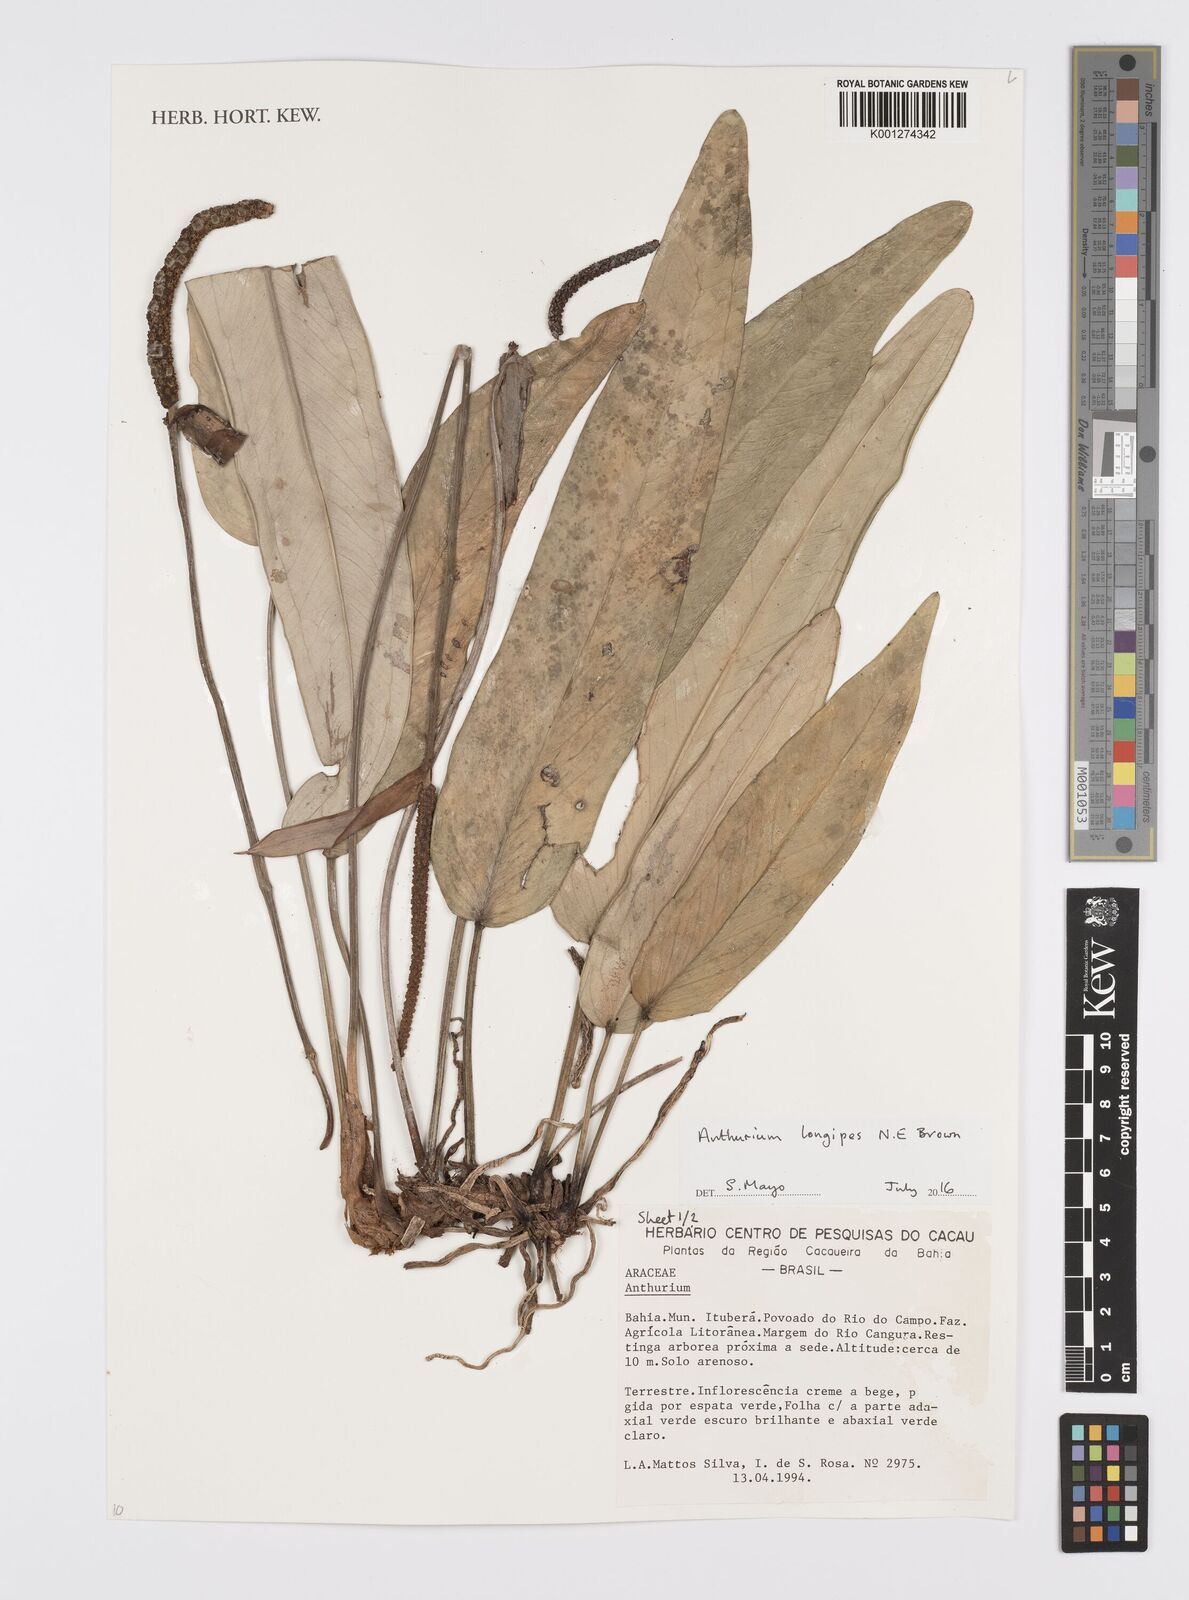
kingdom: Plantae
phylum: Tracheophyta
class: Liliopsida
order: Alismatales
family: Araceae
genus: Anthurium
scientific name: Anthurium clidemioides
